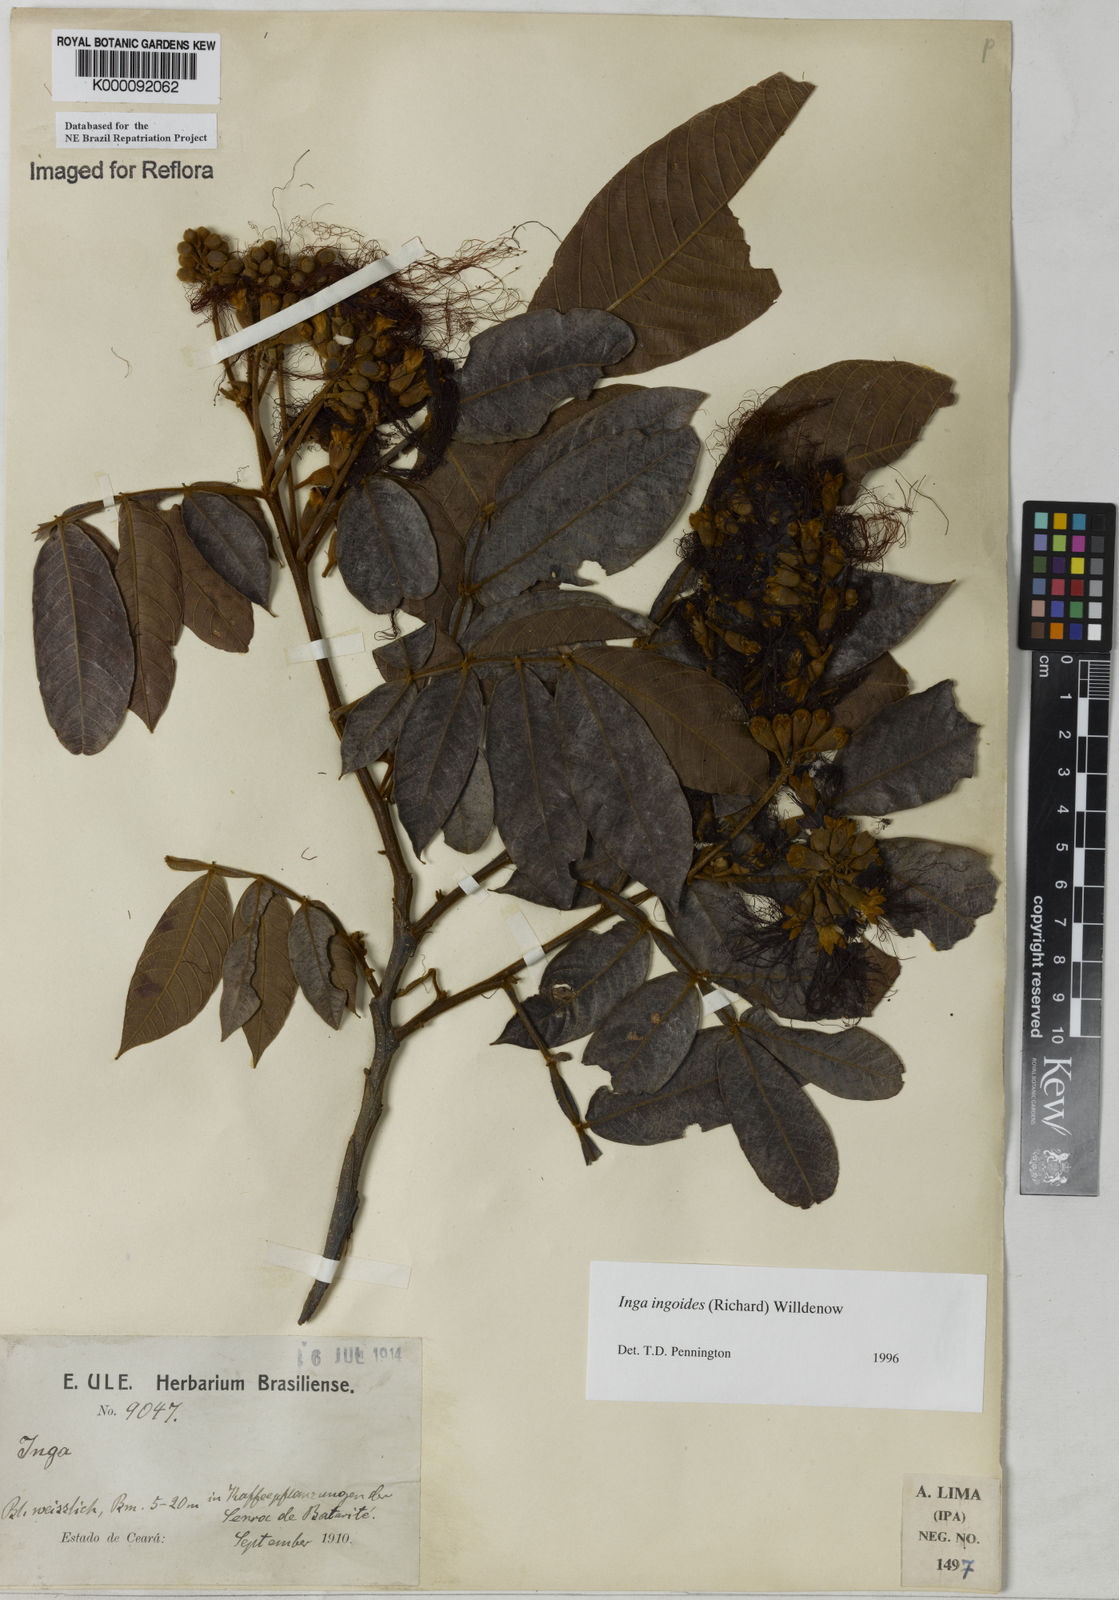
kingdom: Plantae
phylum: Tracheophyta
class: Magnoliopsida
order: Fabales
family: Fabaceae
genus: Inga
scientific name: Inga ingoides
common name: Spanish ash
